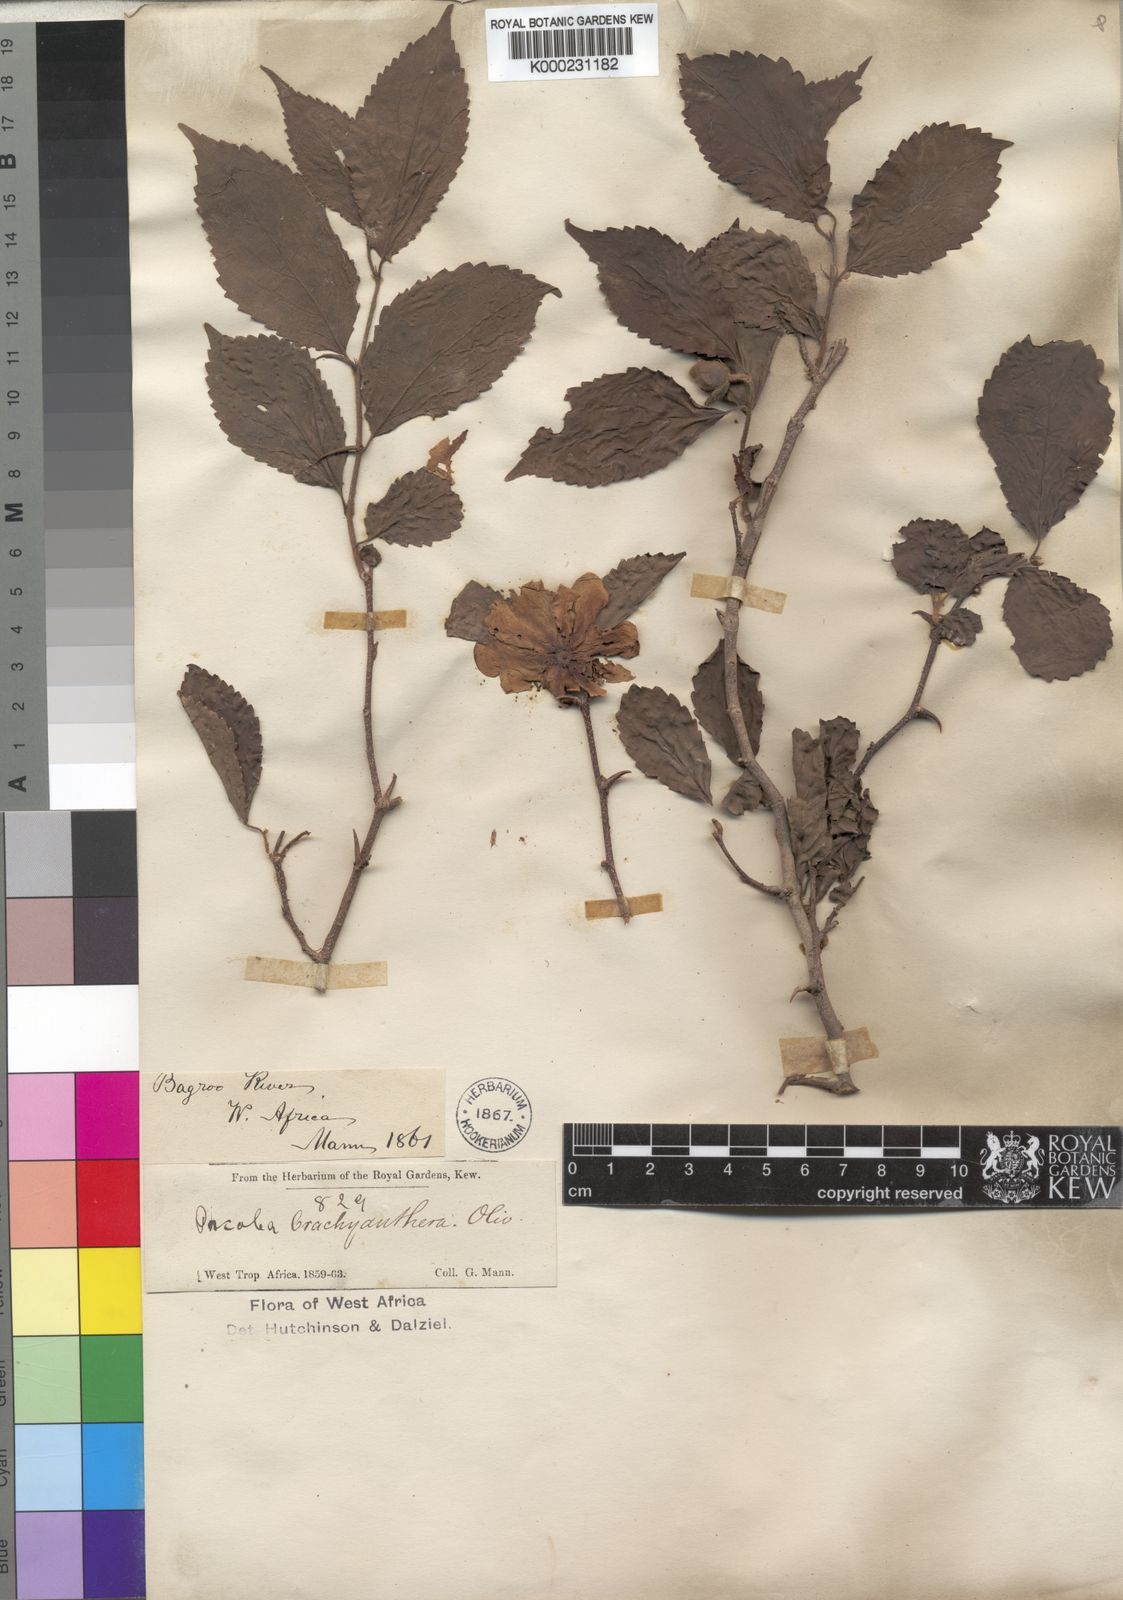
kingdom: Plantae
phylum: Tracheophyta
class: Magnoliopsida
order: Malpighiales
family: Salicaceae
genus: Oncoba
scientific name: Oncoba brachyanthera
